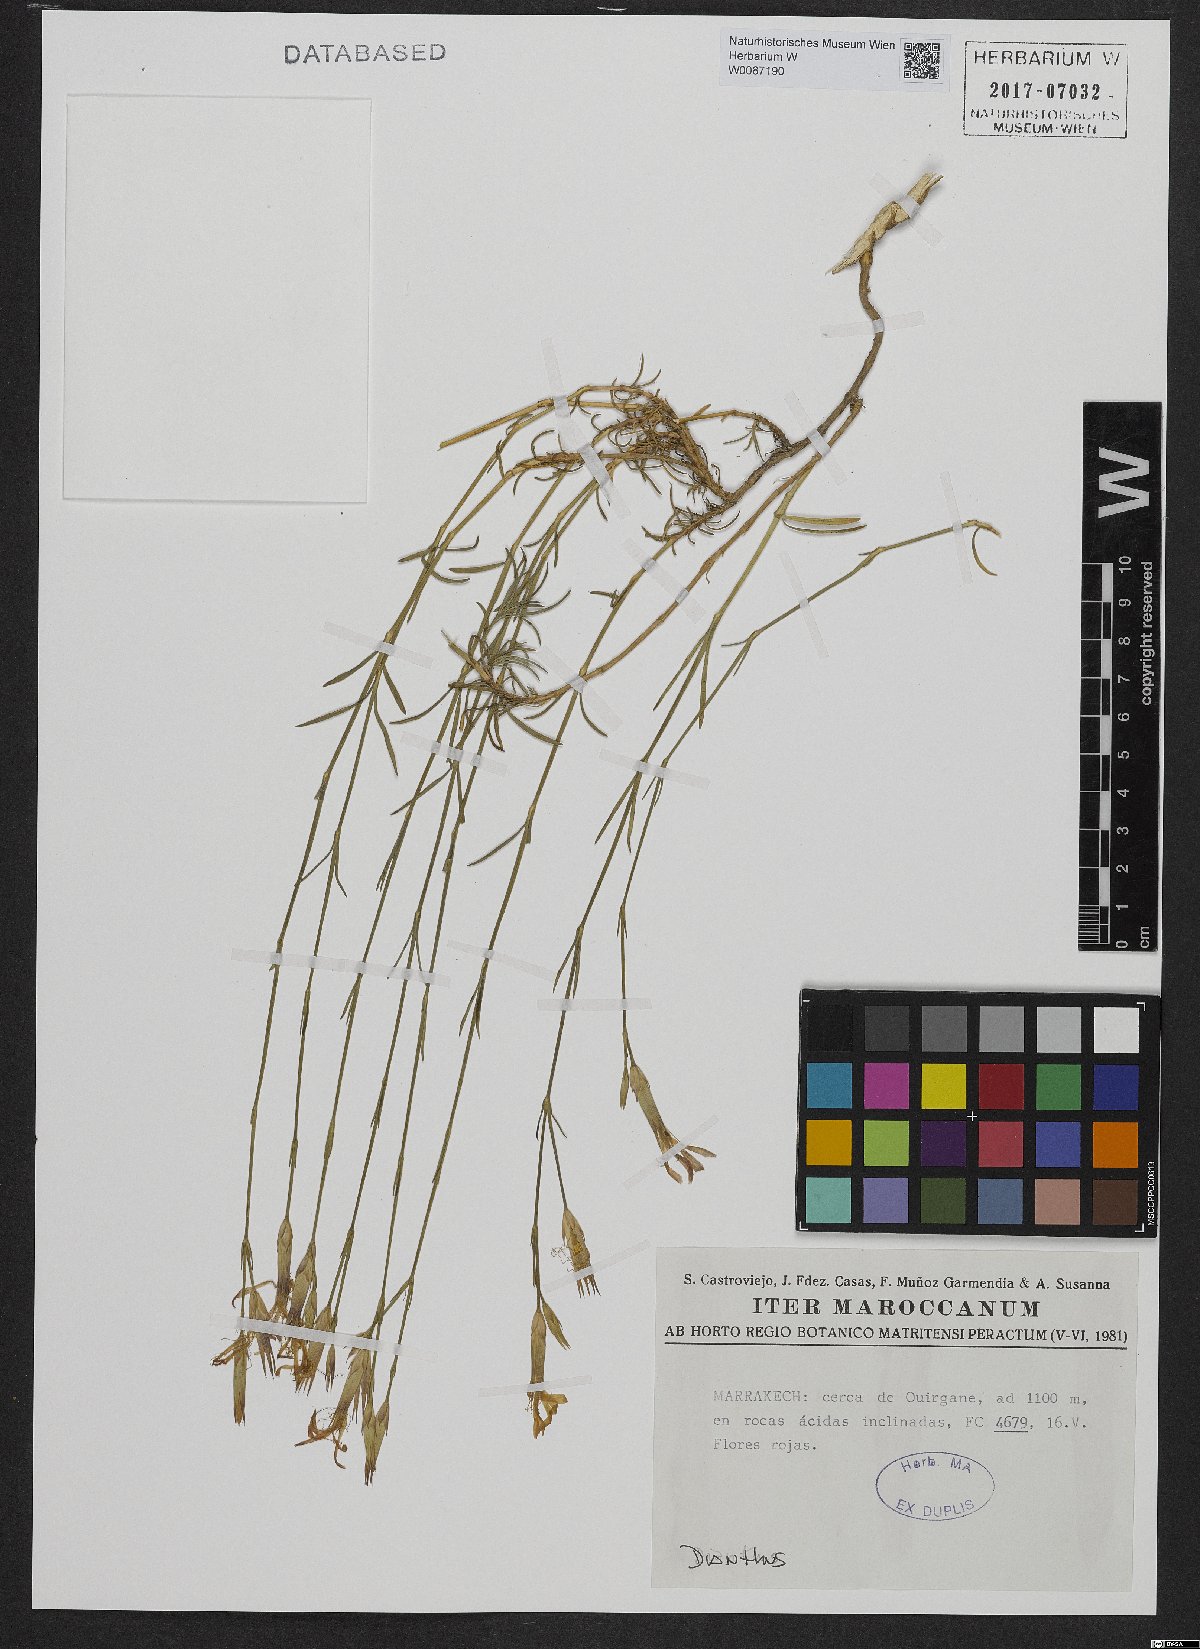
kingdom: Plantae
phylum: Tracheophyta
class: Magnoliopsida
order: Caryophyllales
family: Caryophyllaceae
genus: Dianthus
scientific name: Dianthus
